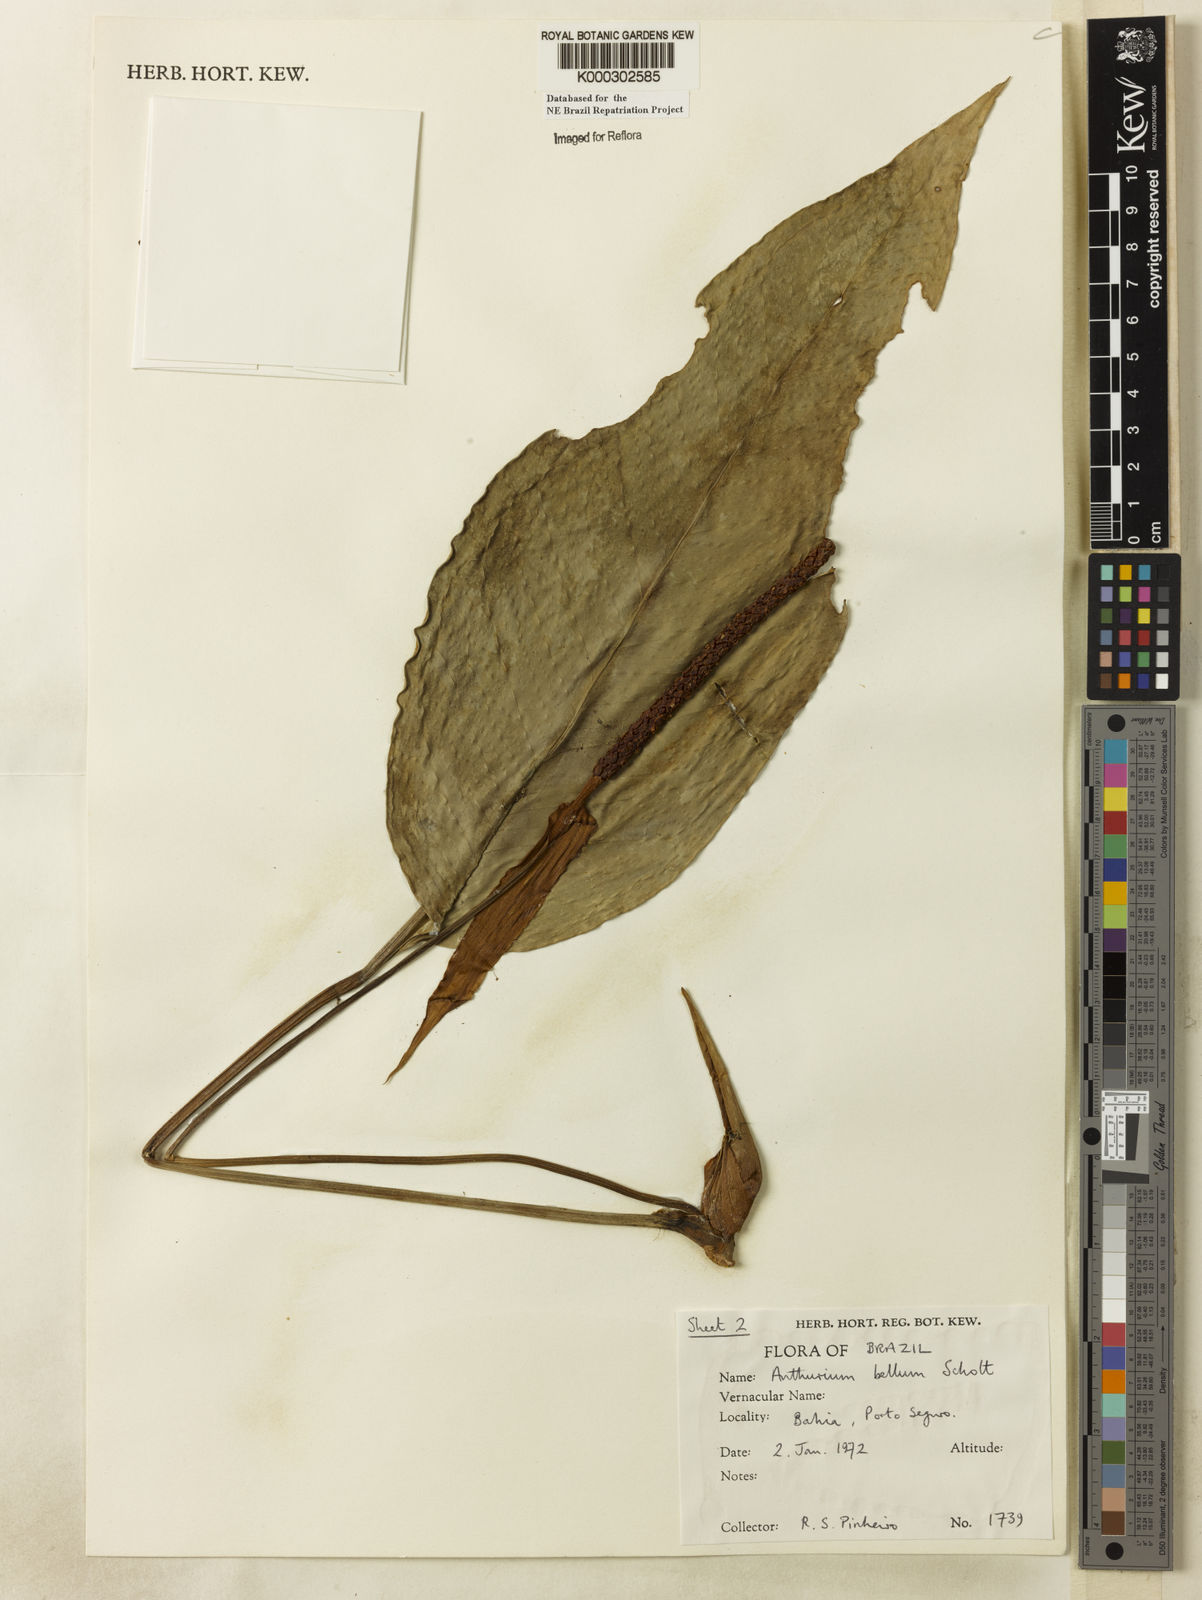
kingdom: Plantae
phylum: Tracheophyta
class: Liliopsida
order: Alismatales
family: Araceae
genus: Anthurium
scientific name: Anthurium bellum
